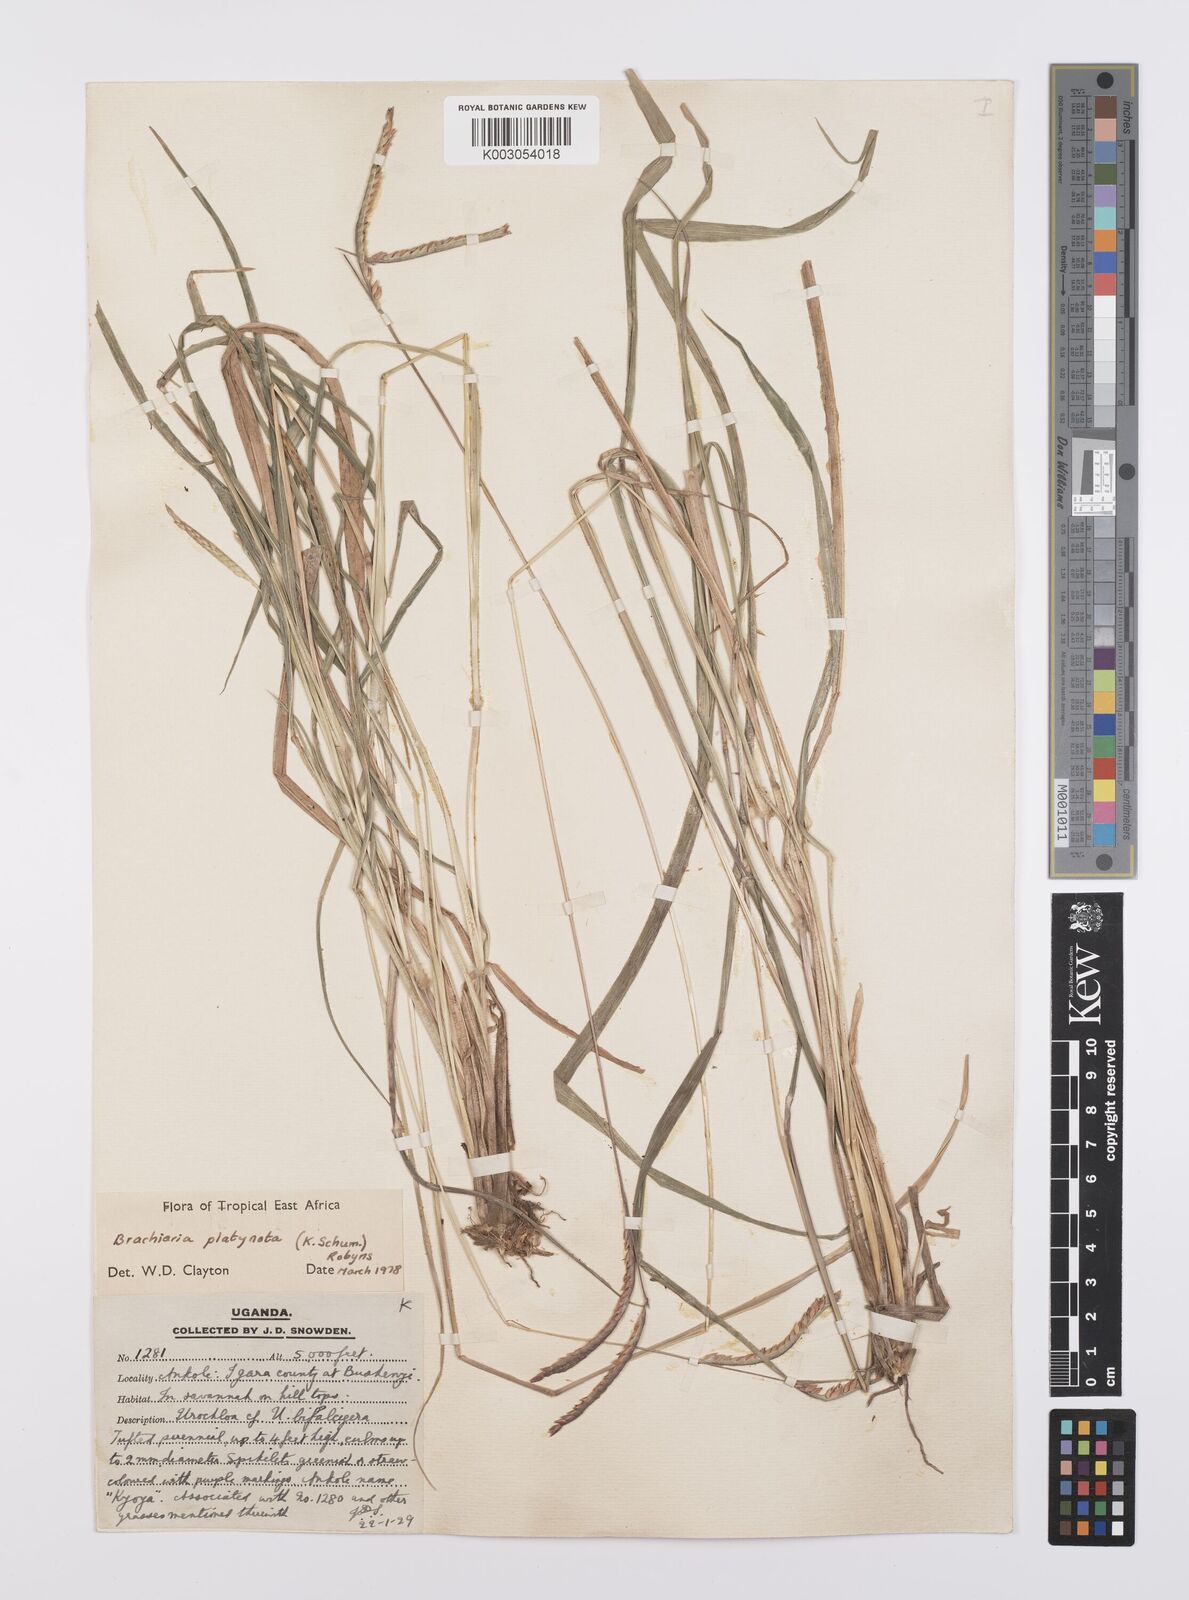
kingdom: Plantae
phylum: Tracheophyta
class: Liliopsida
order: Poales
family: Poaceae
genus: Urochloa
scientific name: Urochloa platynota
